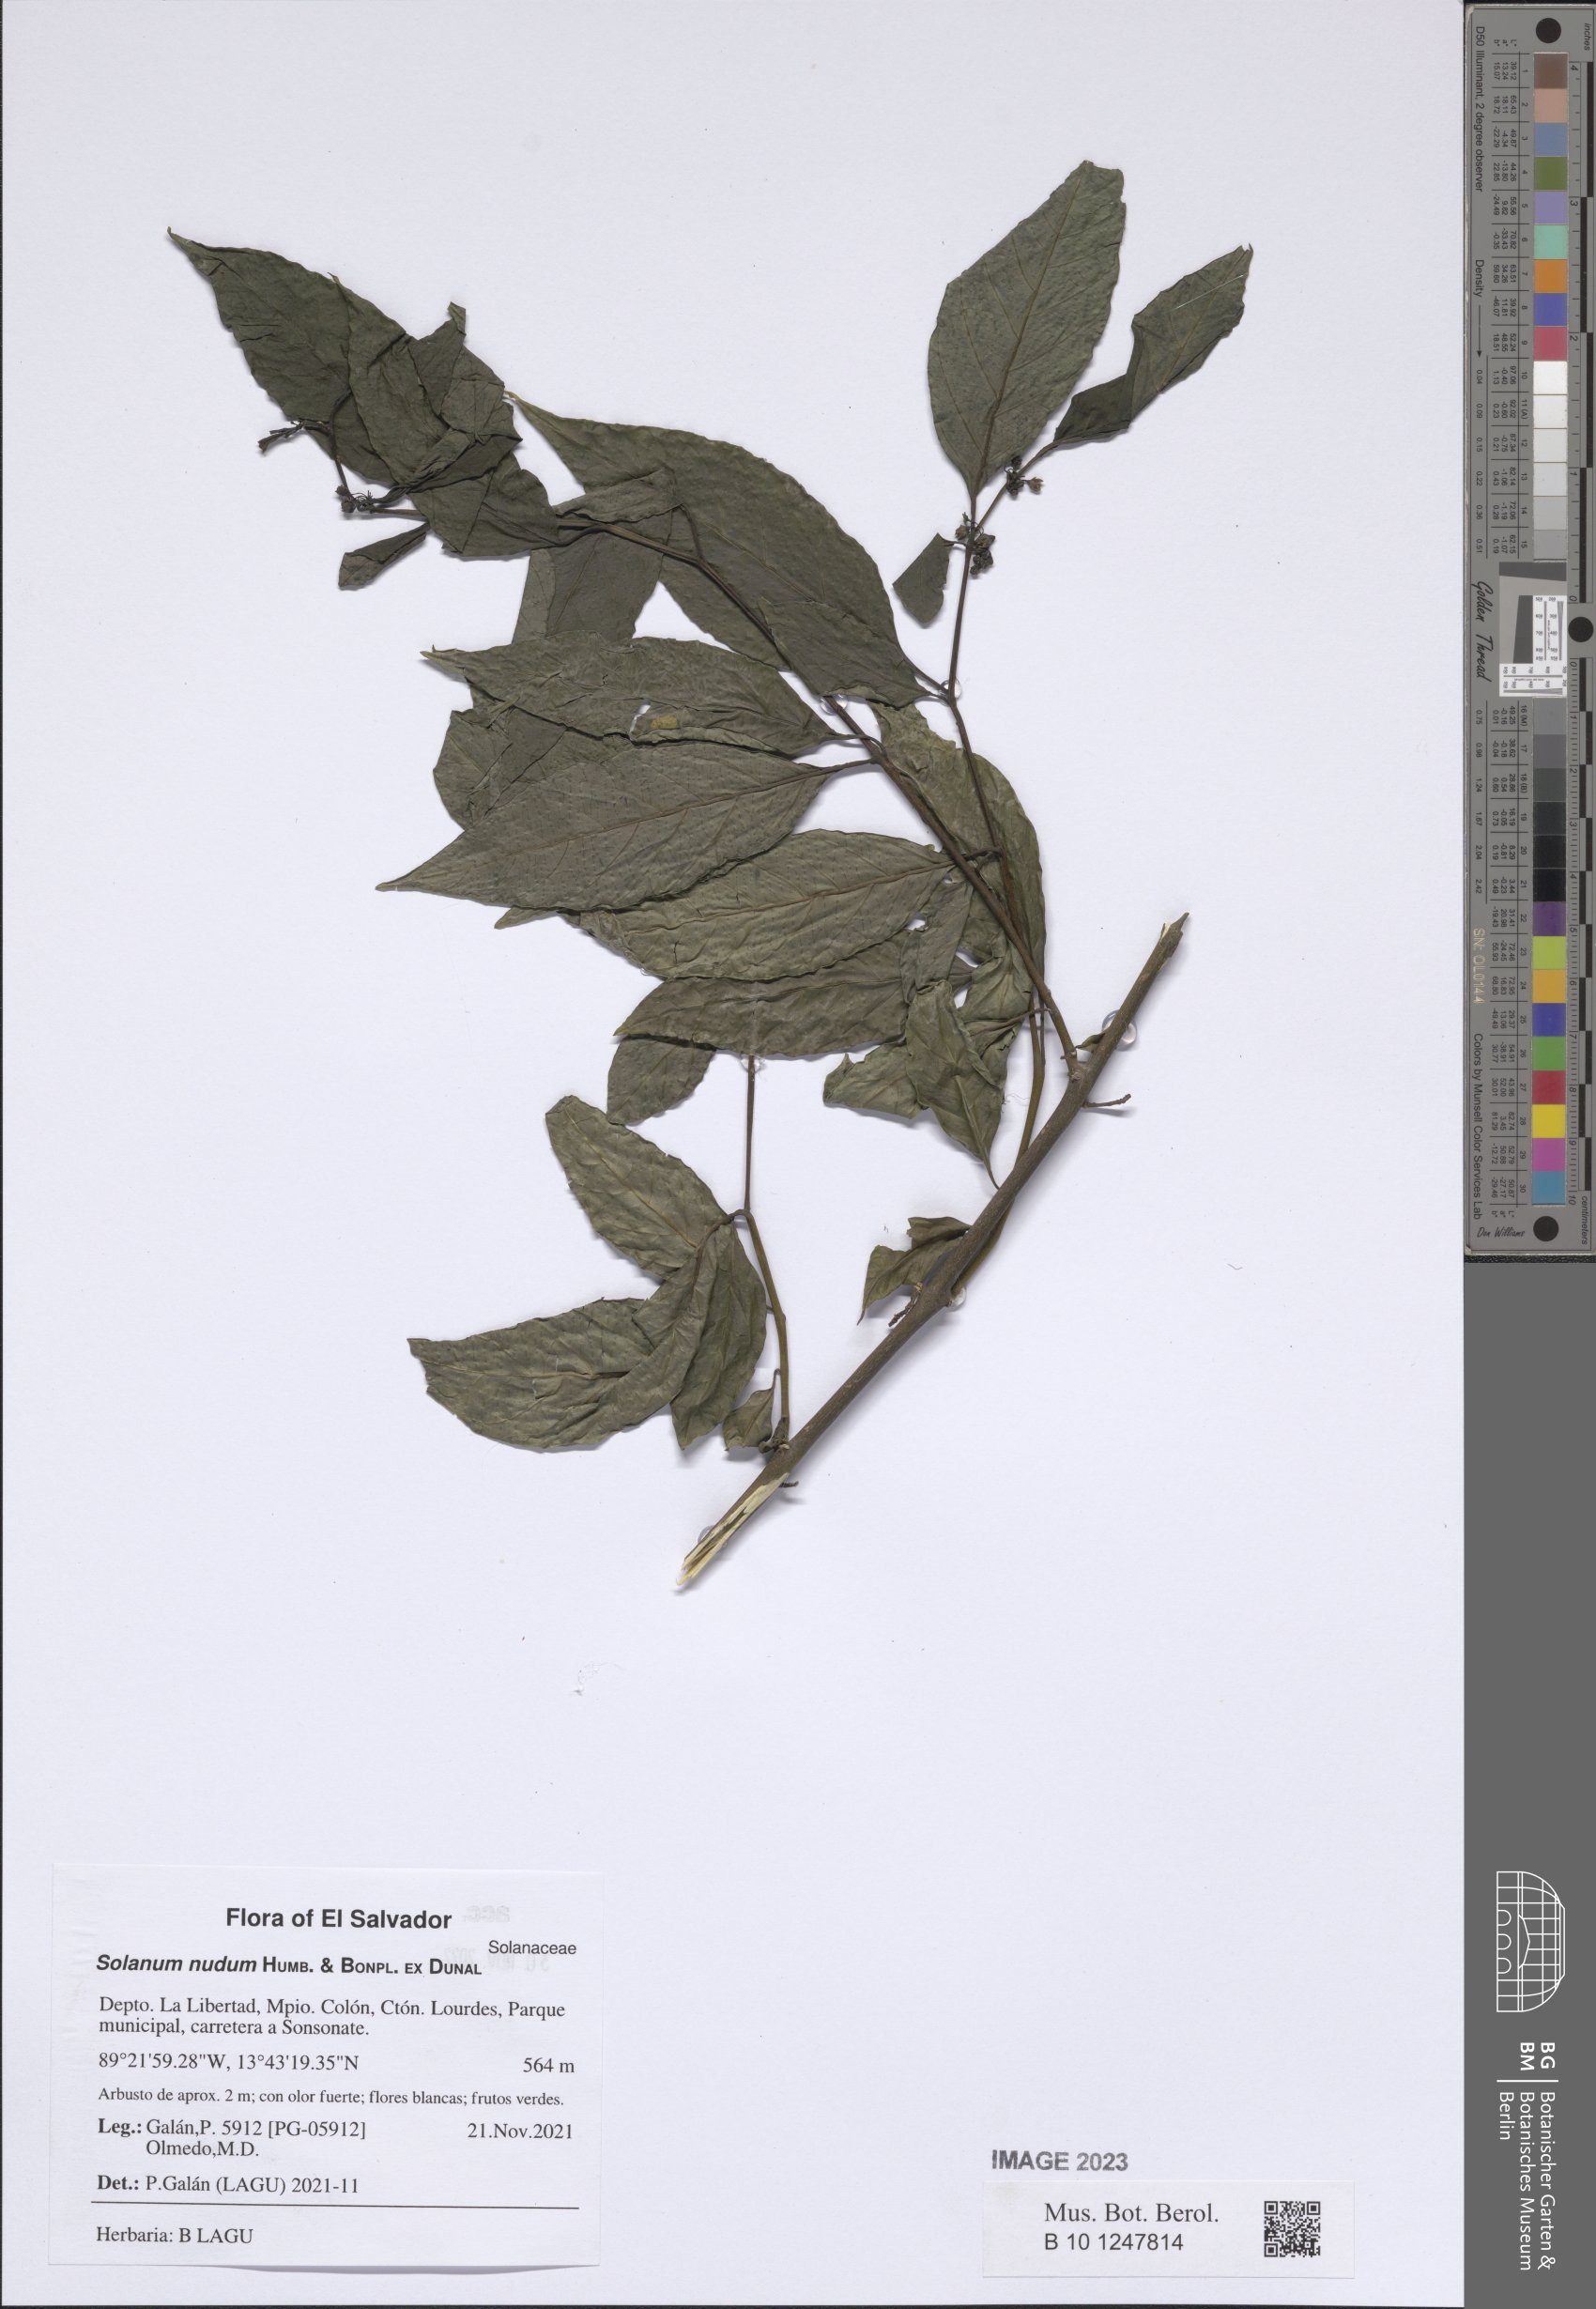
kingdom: Plantae
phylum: Tracheophyta
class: Magnoliopsida
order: Solanales
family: Solanaceae
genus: Solanum
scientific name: Solanum nudum
